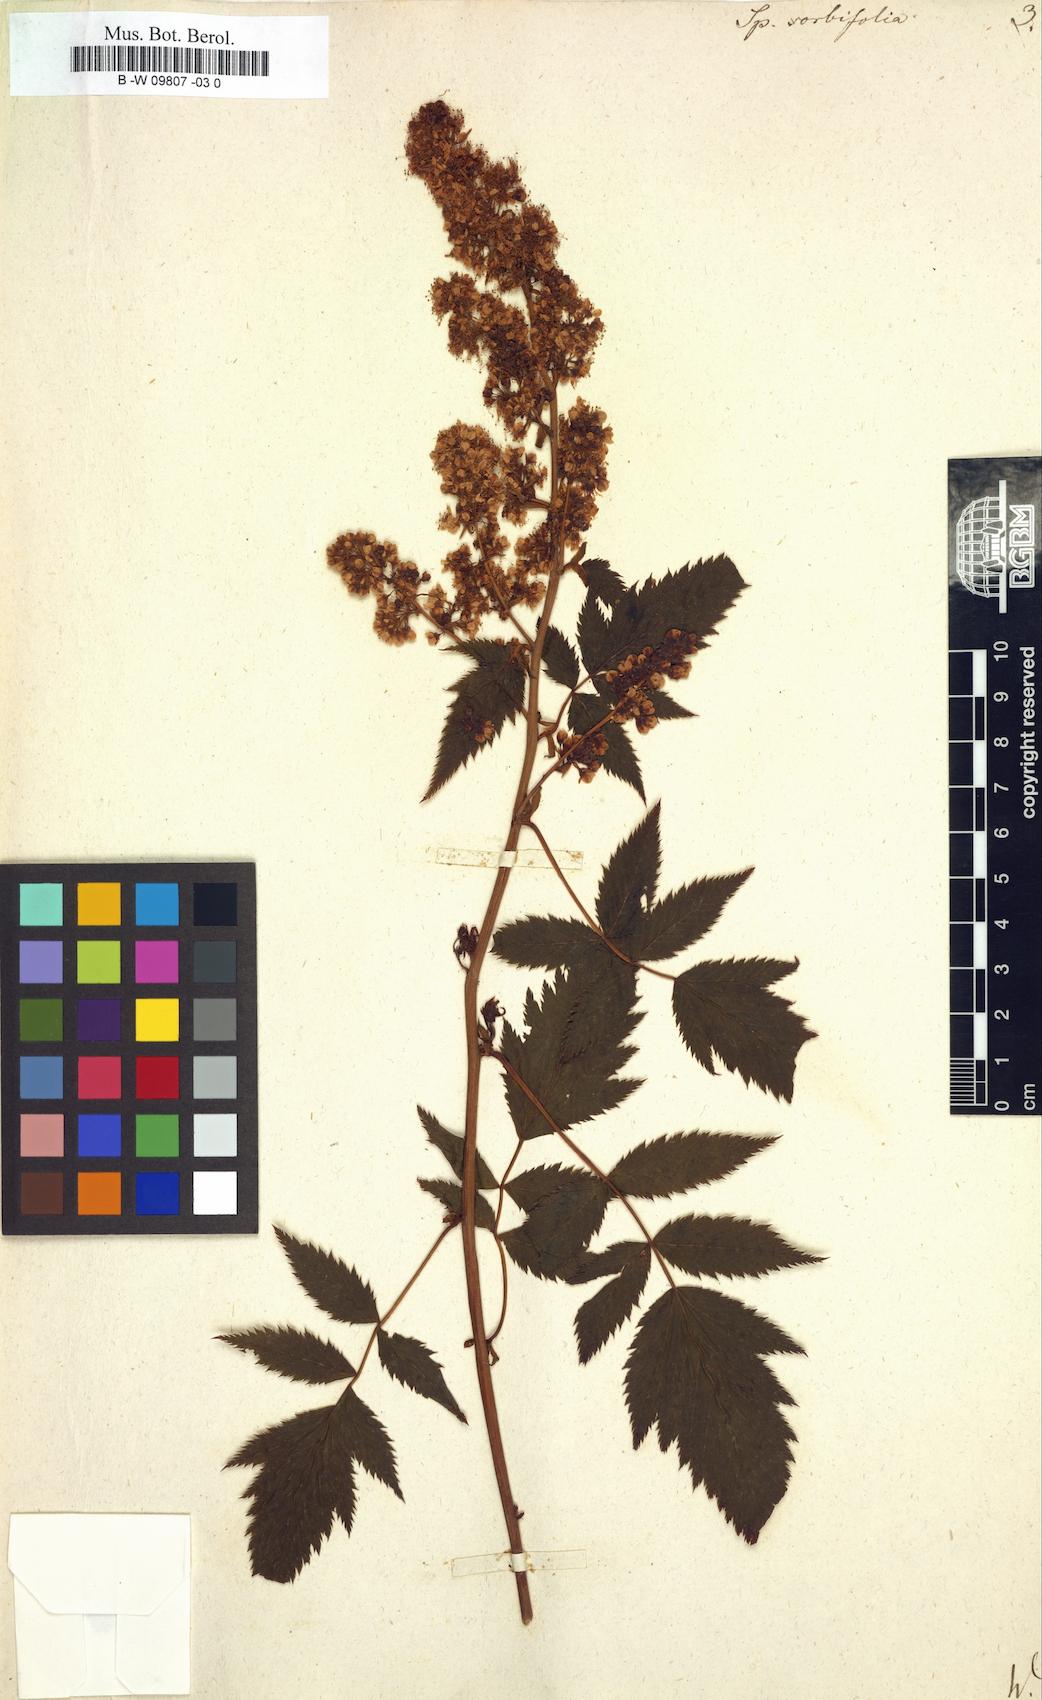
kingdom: Plantae
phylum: Tracheophyta
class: Magnoliopsida
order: Rosales
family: Rosaceae
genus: Sorbaria
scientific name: Sorbaria
